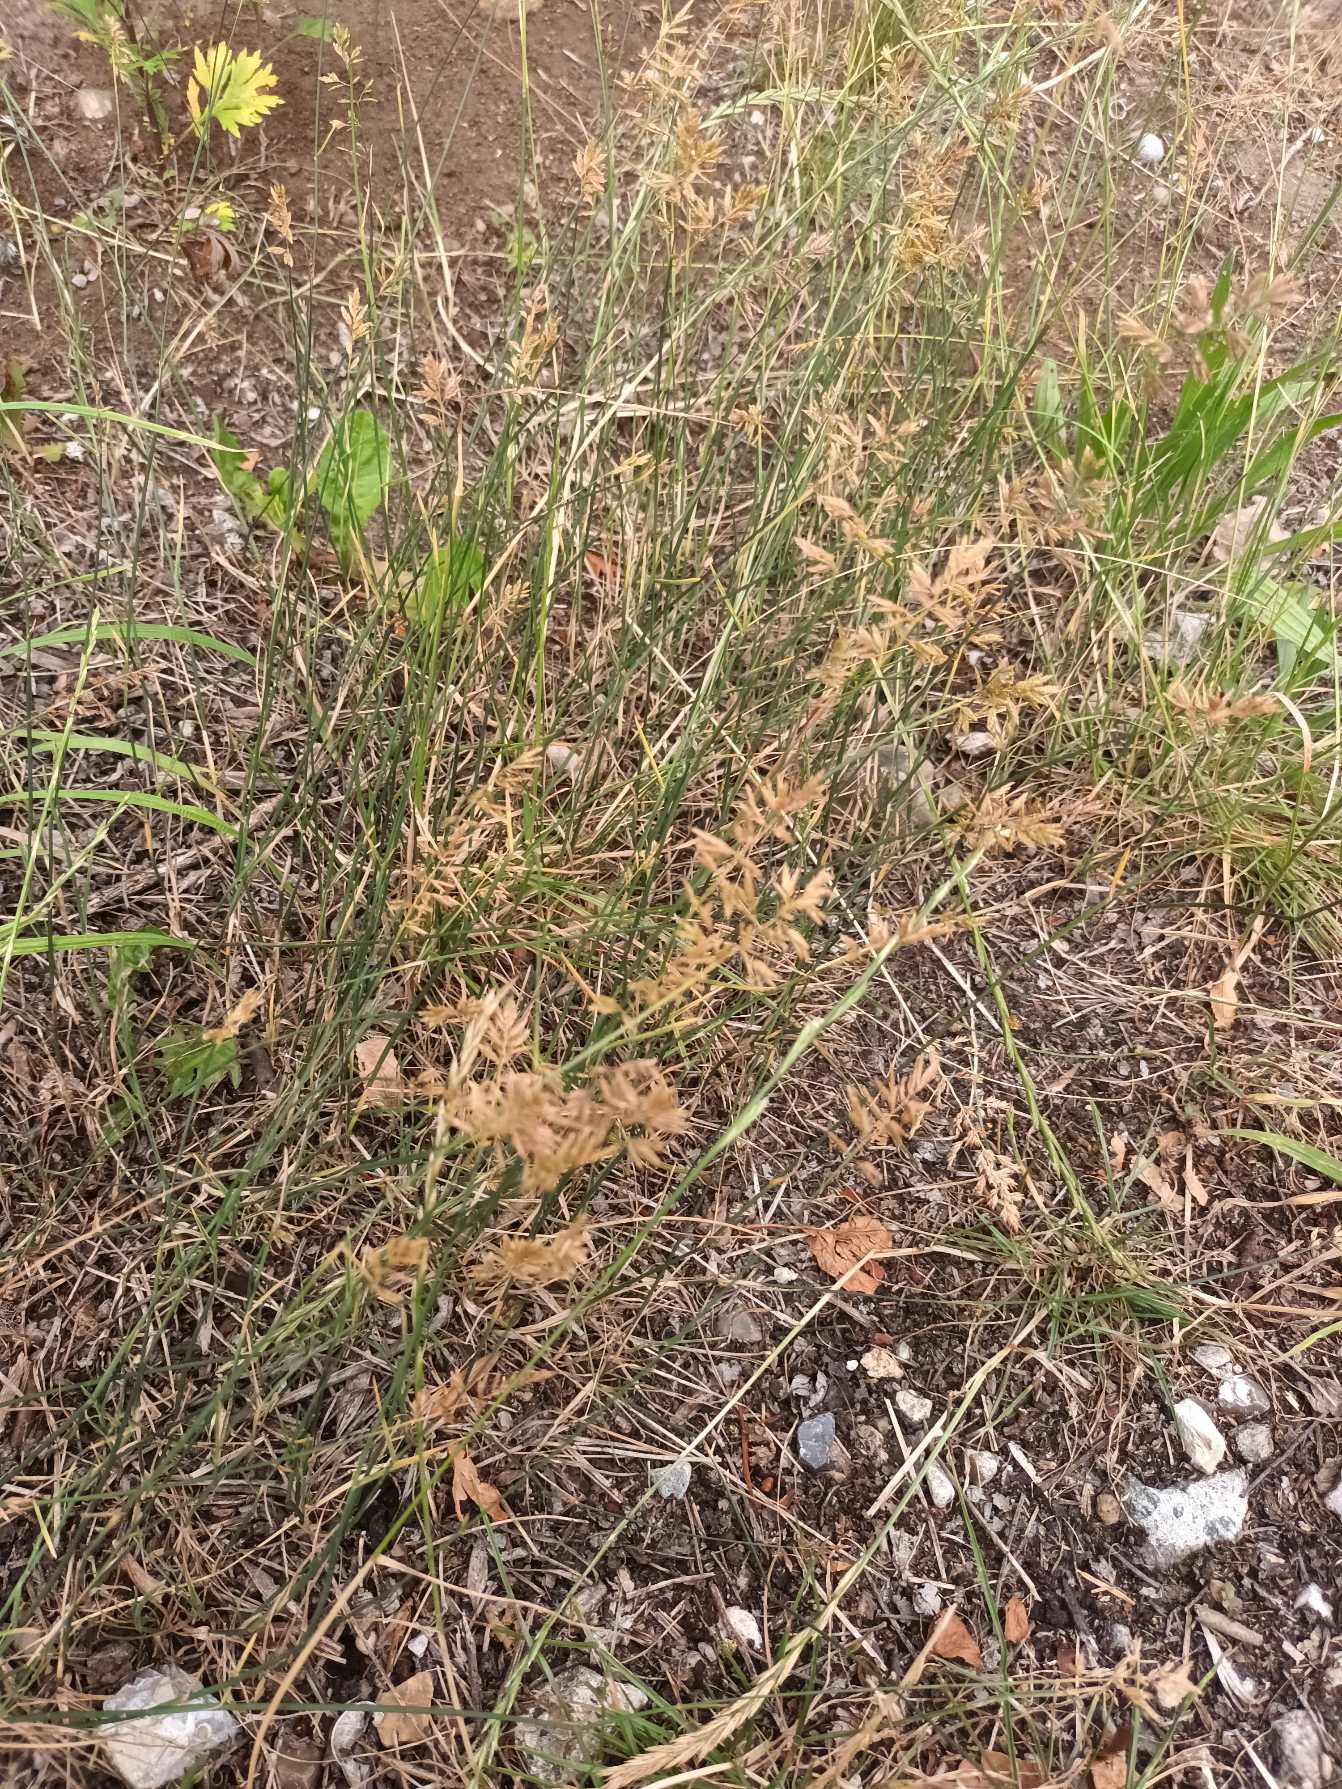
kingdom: Plantae
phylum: Tracheophyta
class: Liliopsida
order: Poales
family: Poaceae
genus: Poa
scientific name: Poa compressa
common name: Fladstrået rapgræs
